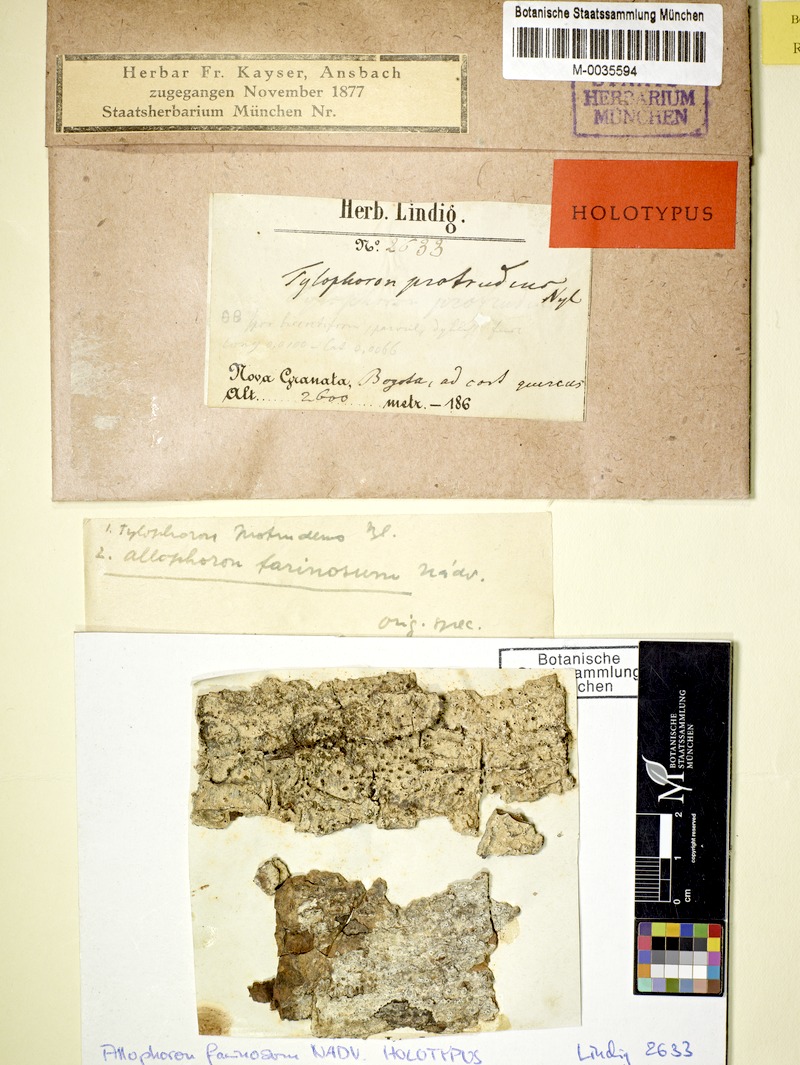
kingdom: Fungi
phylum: Ascomycota
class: Lecanoromycetes
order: Lecanorales
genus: Allophoron
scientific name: Allophoron farinosum
